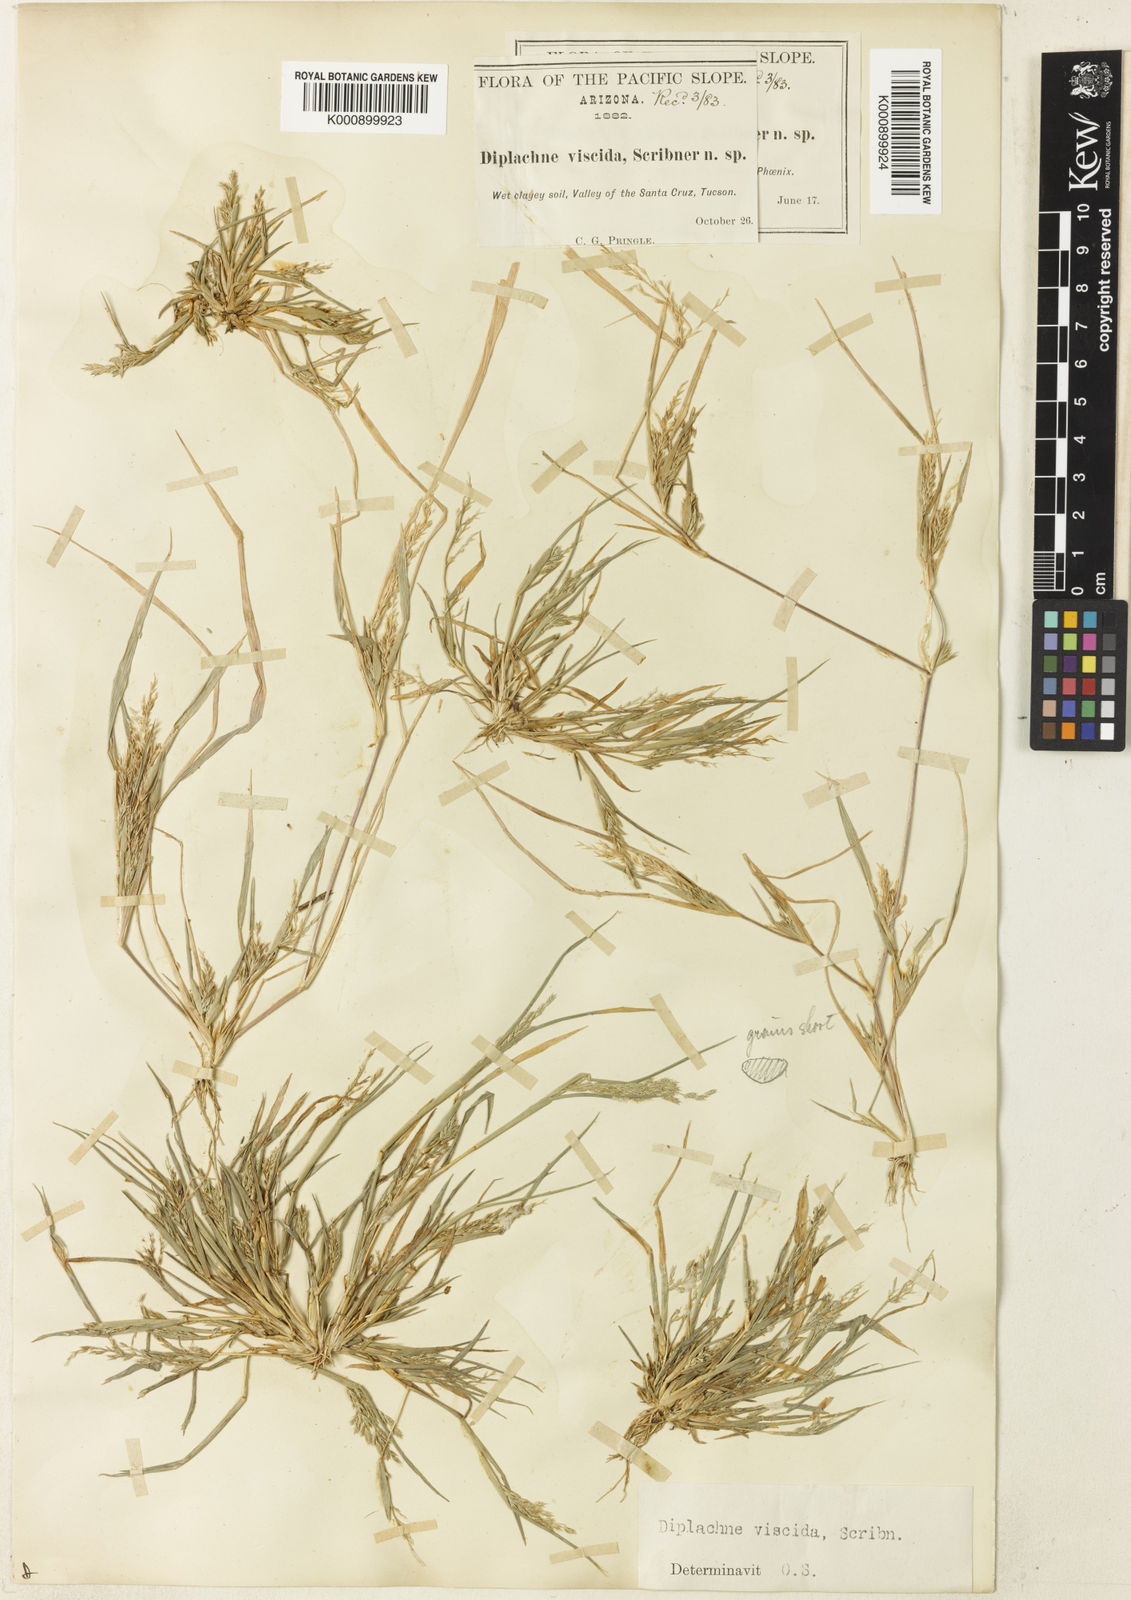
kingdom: Plantae
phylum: Tracheophyta
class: Liliopsida
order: Poales
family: Poaceae
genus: Leptochloa
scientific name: Leptochloa viscida
